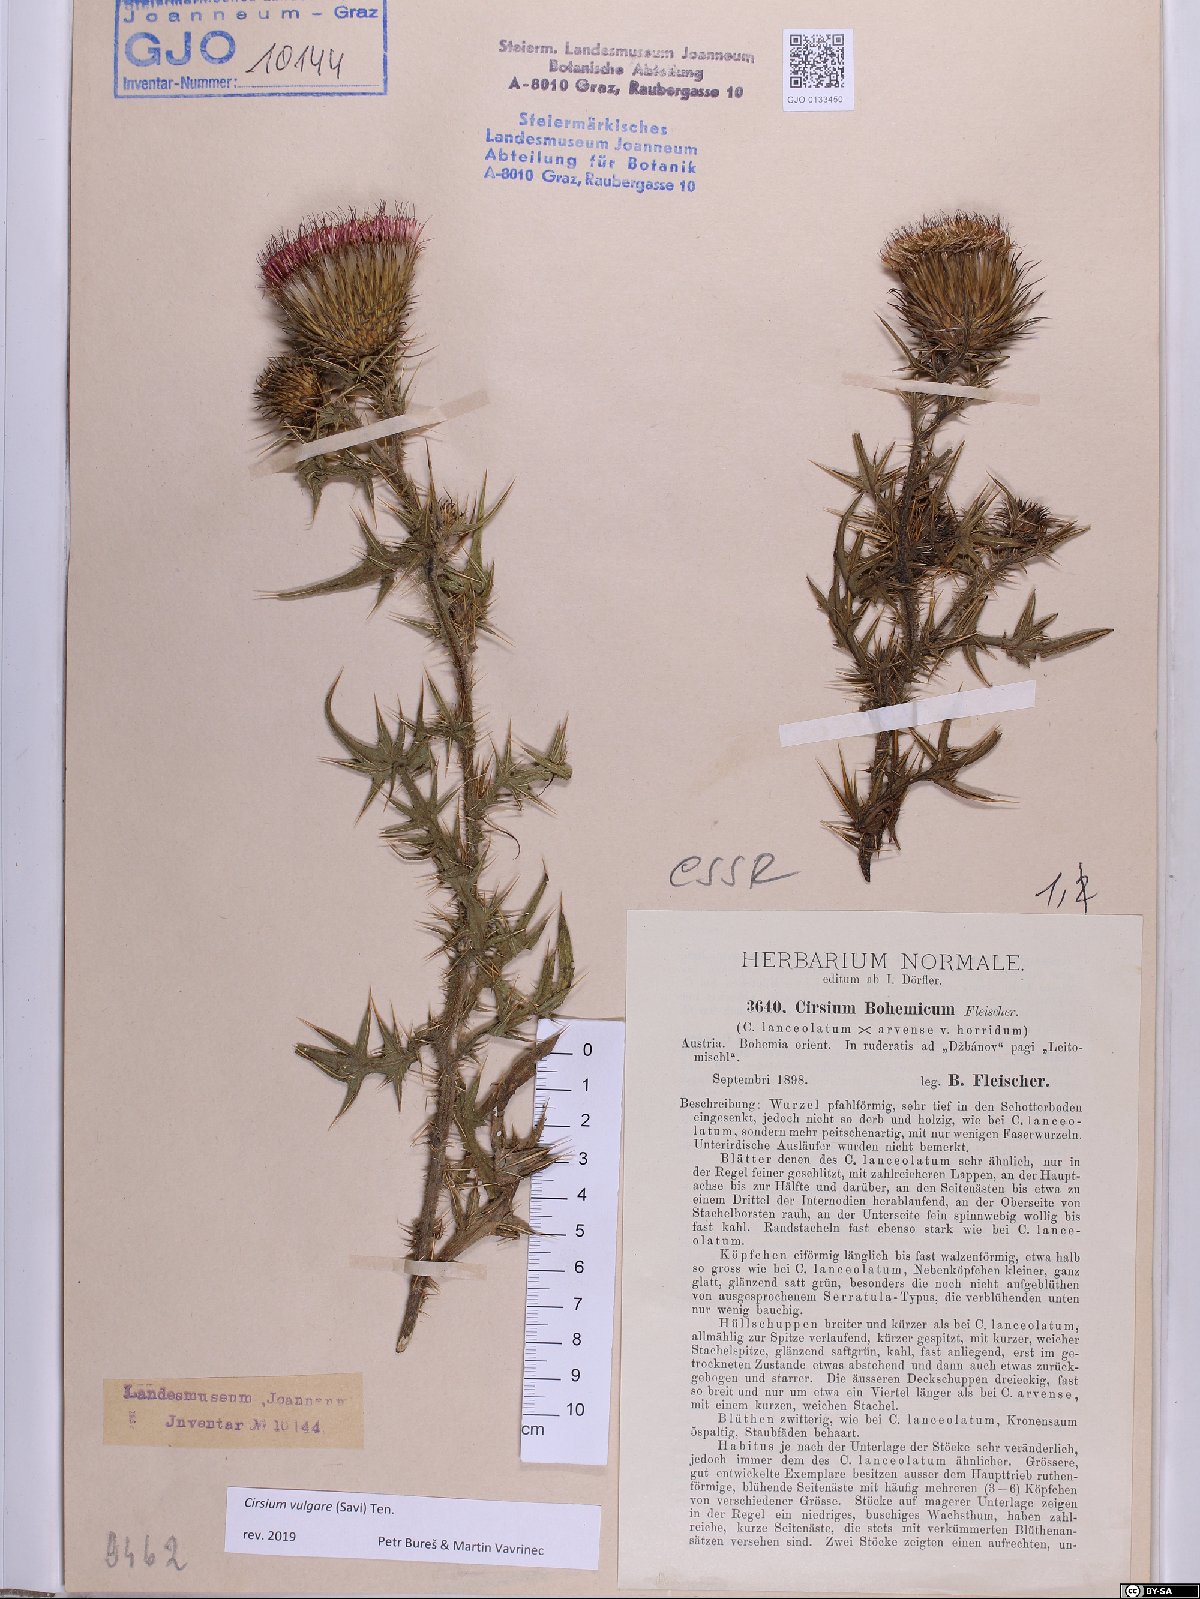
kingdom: Plantae
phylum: Tracheophyta
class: Magnoliopsida
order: Asterales
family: Asteraceae
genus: Cirsium
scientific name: Cirsium vulgare
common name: Bull thistle
